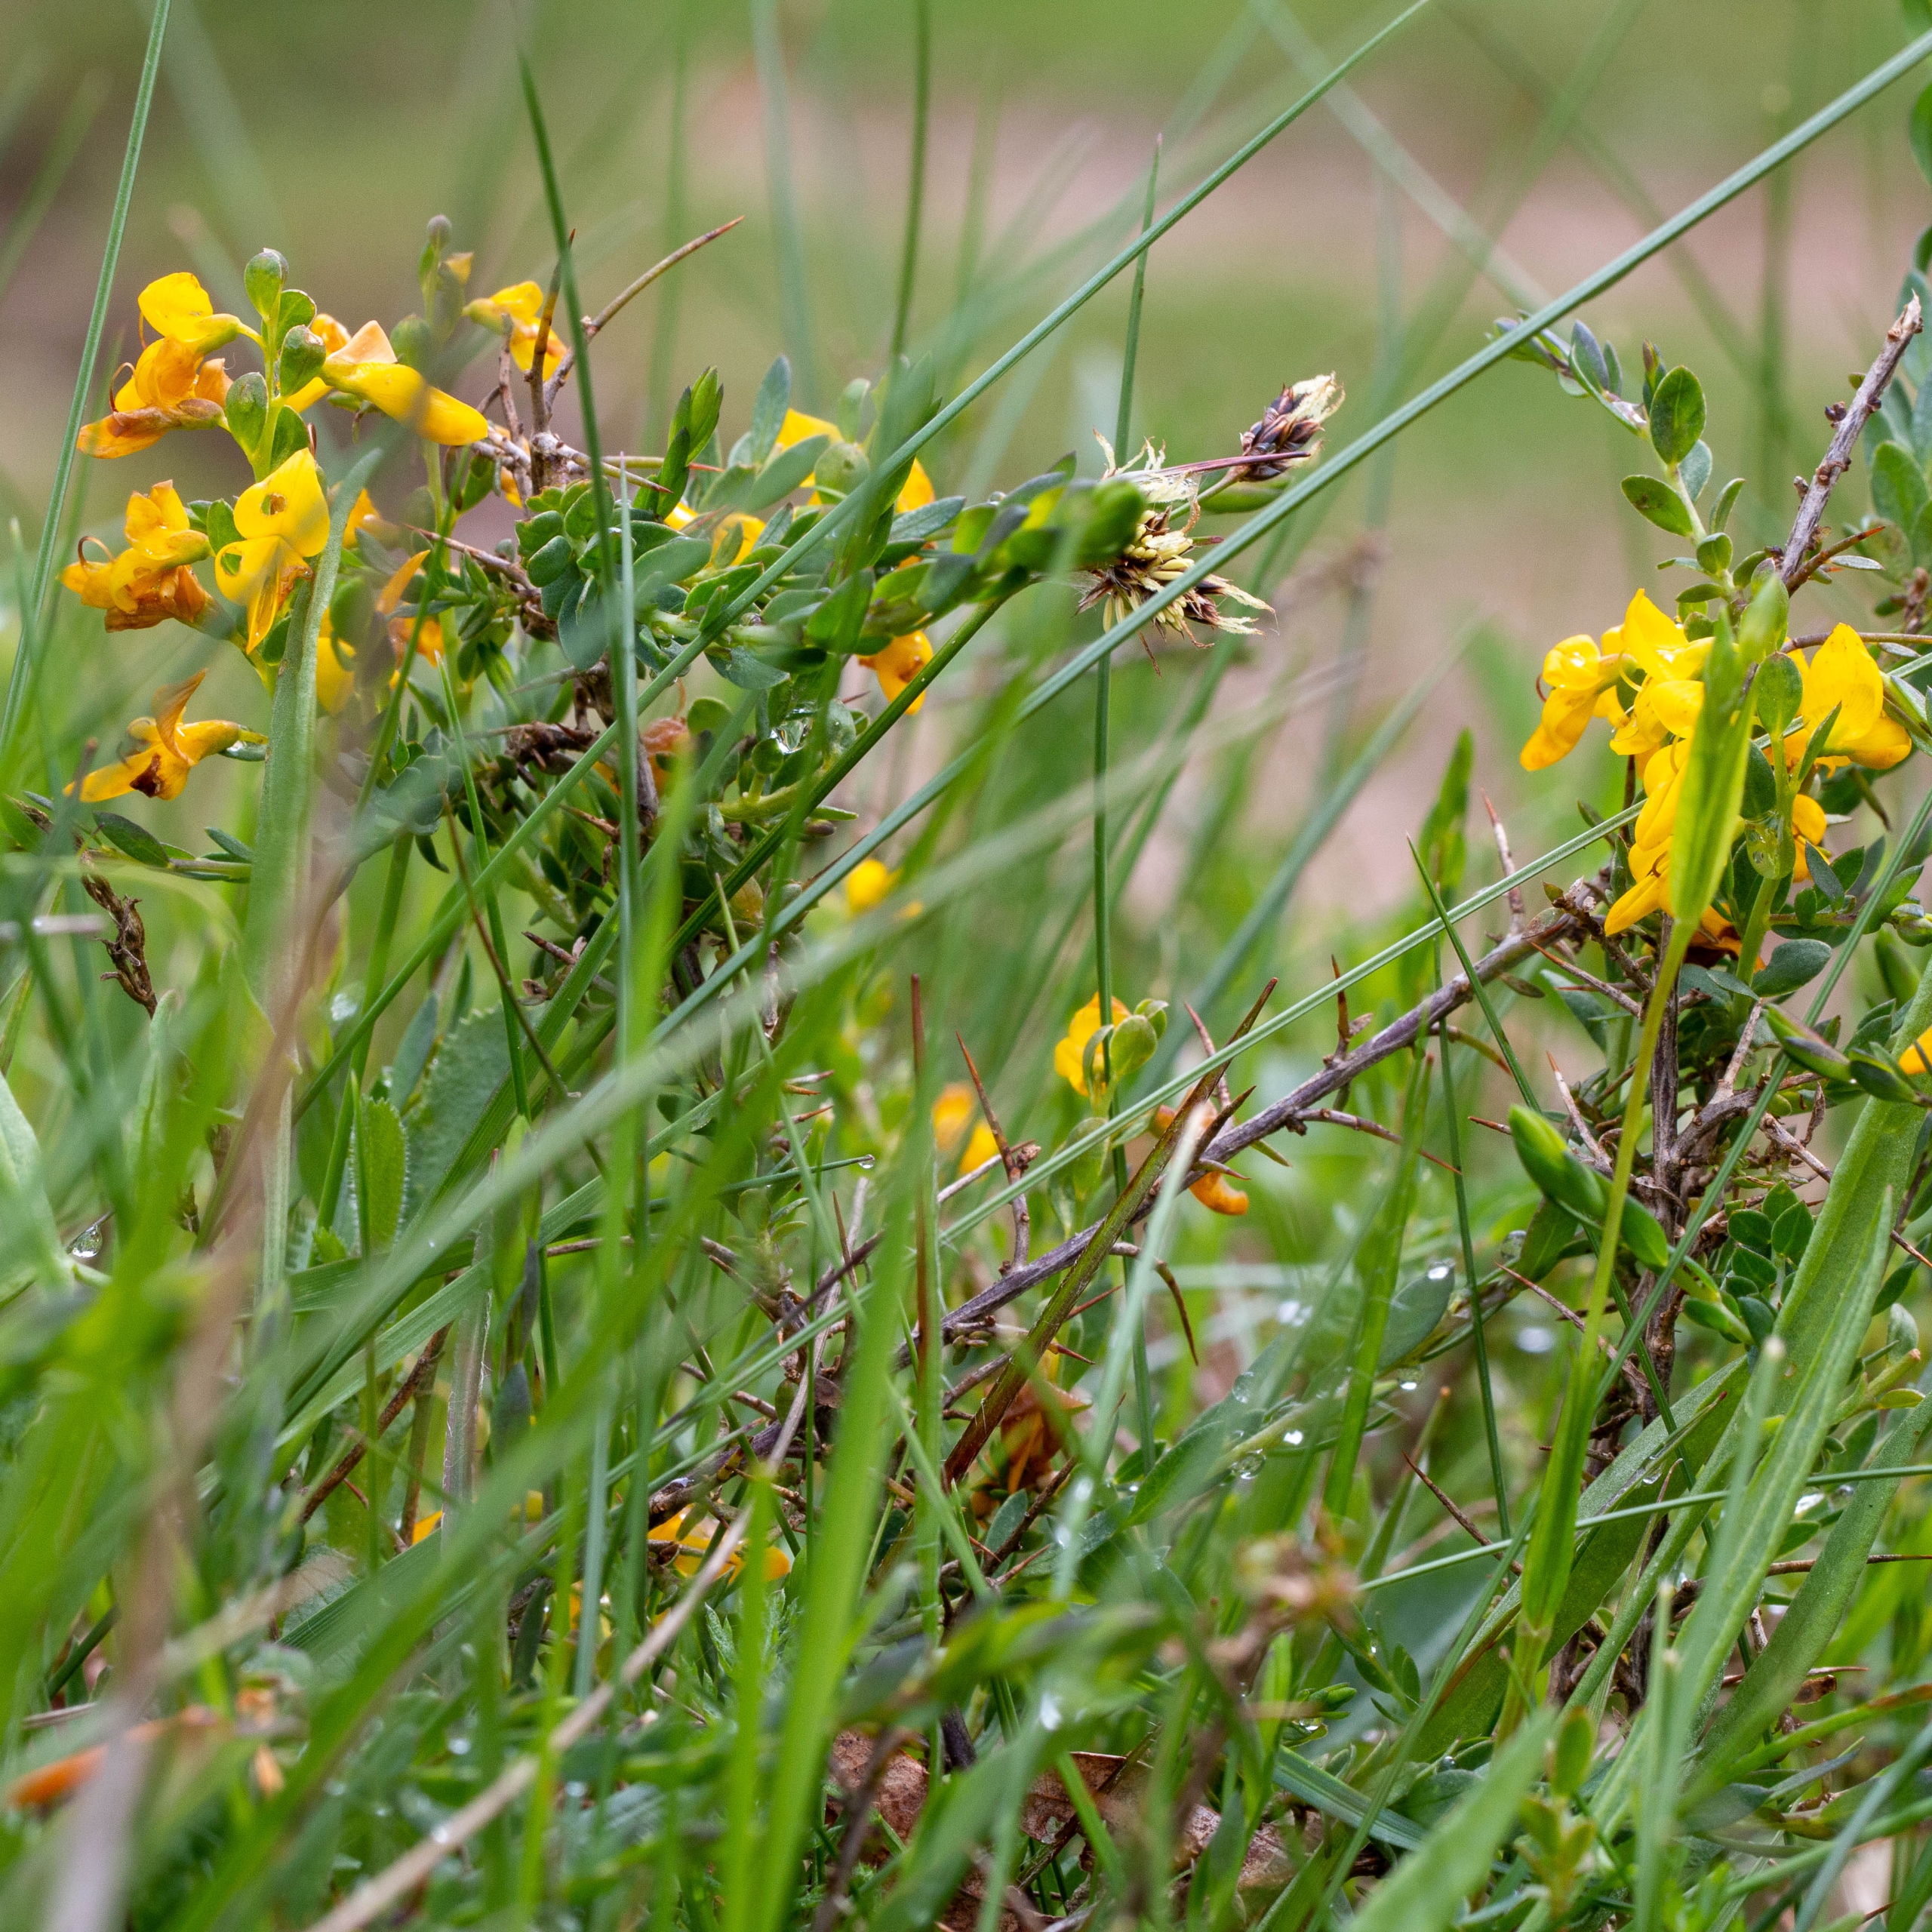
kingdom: Plantae
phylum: Tracheophyta
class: Magnoliopsida
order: Fabales
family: Fabaceae
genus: Genista
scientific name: Genista anglica
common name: Engelsk visse
